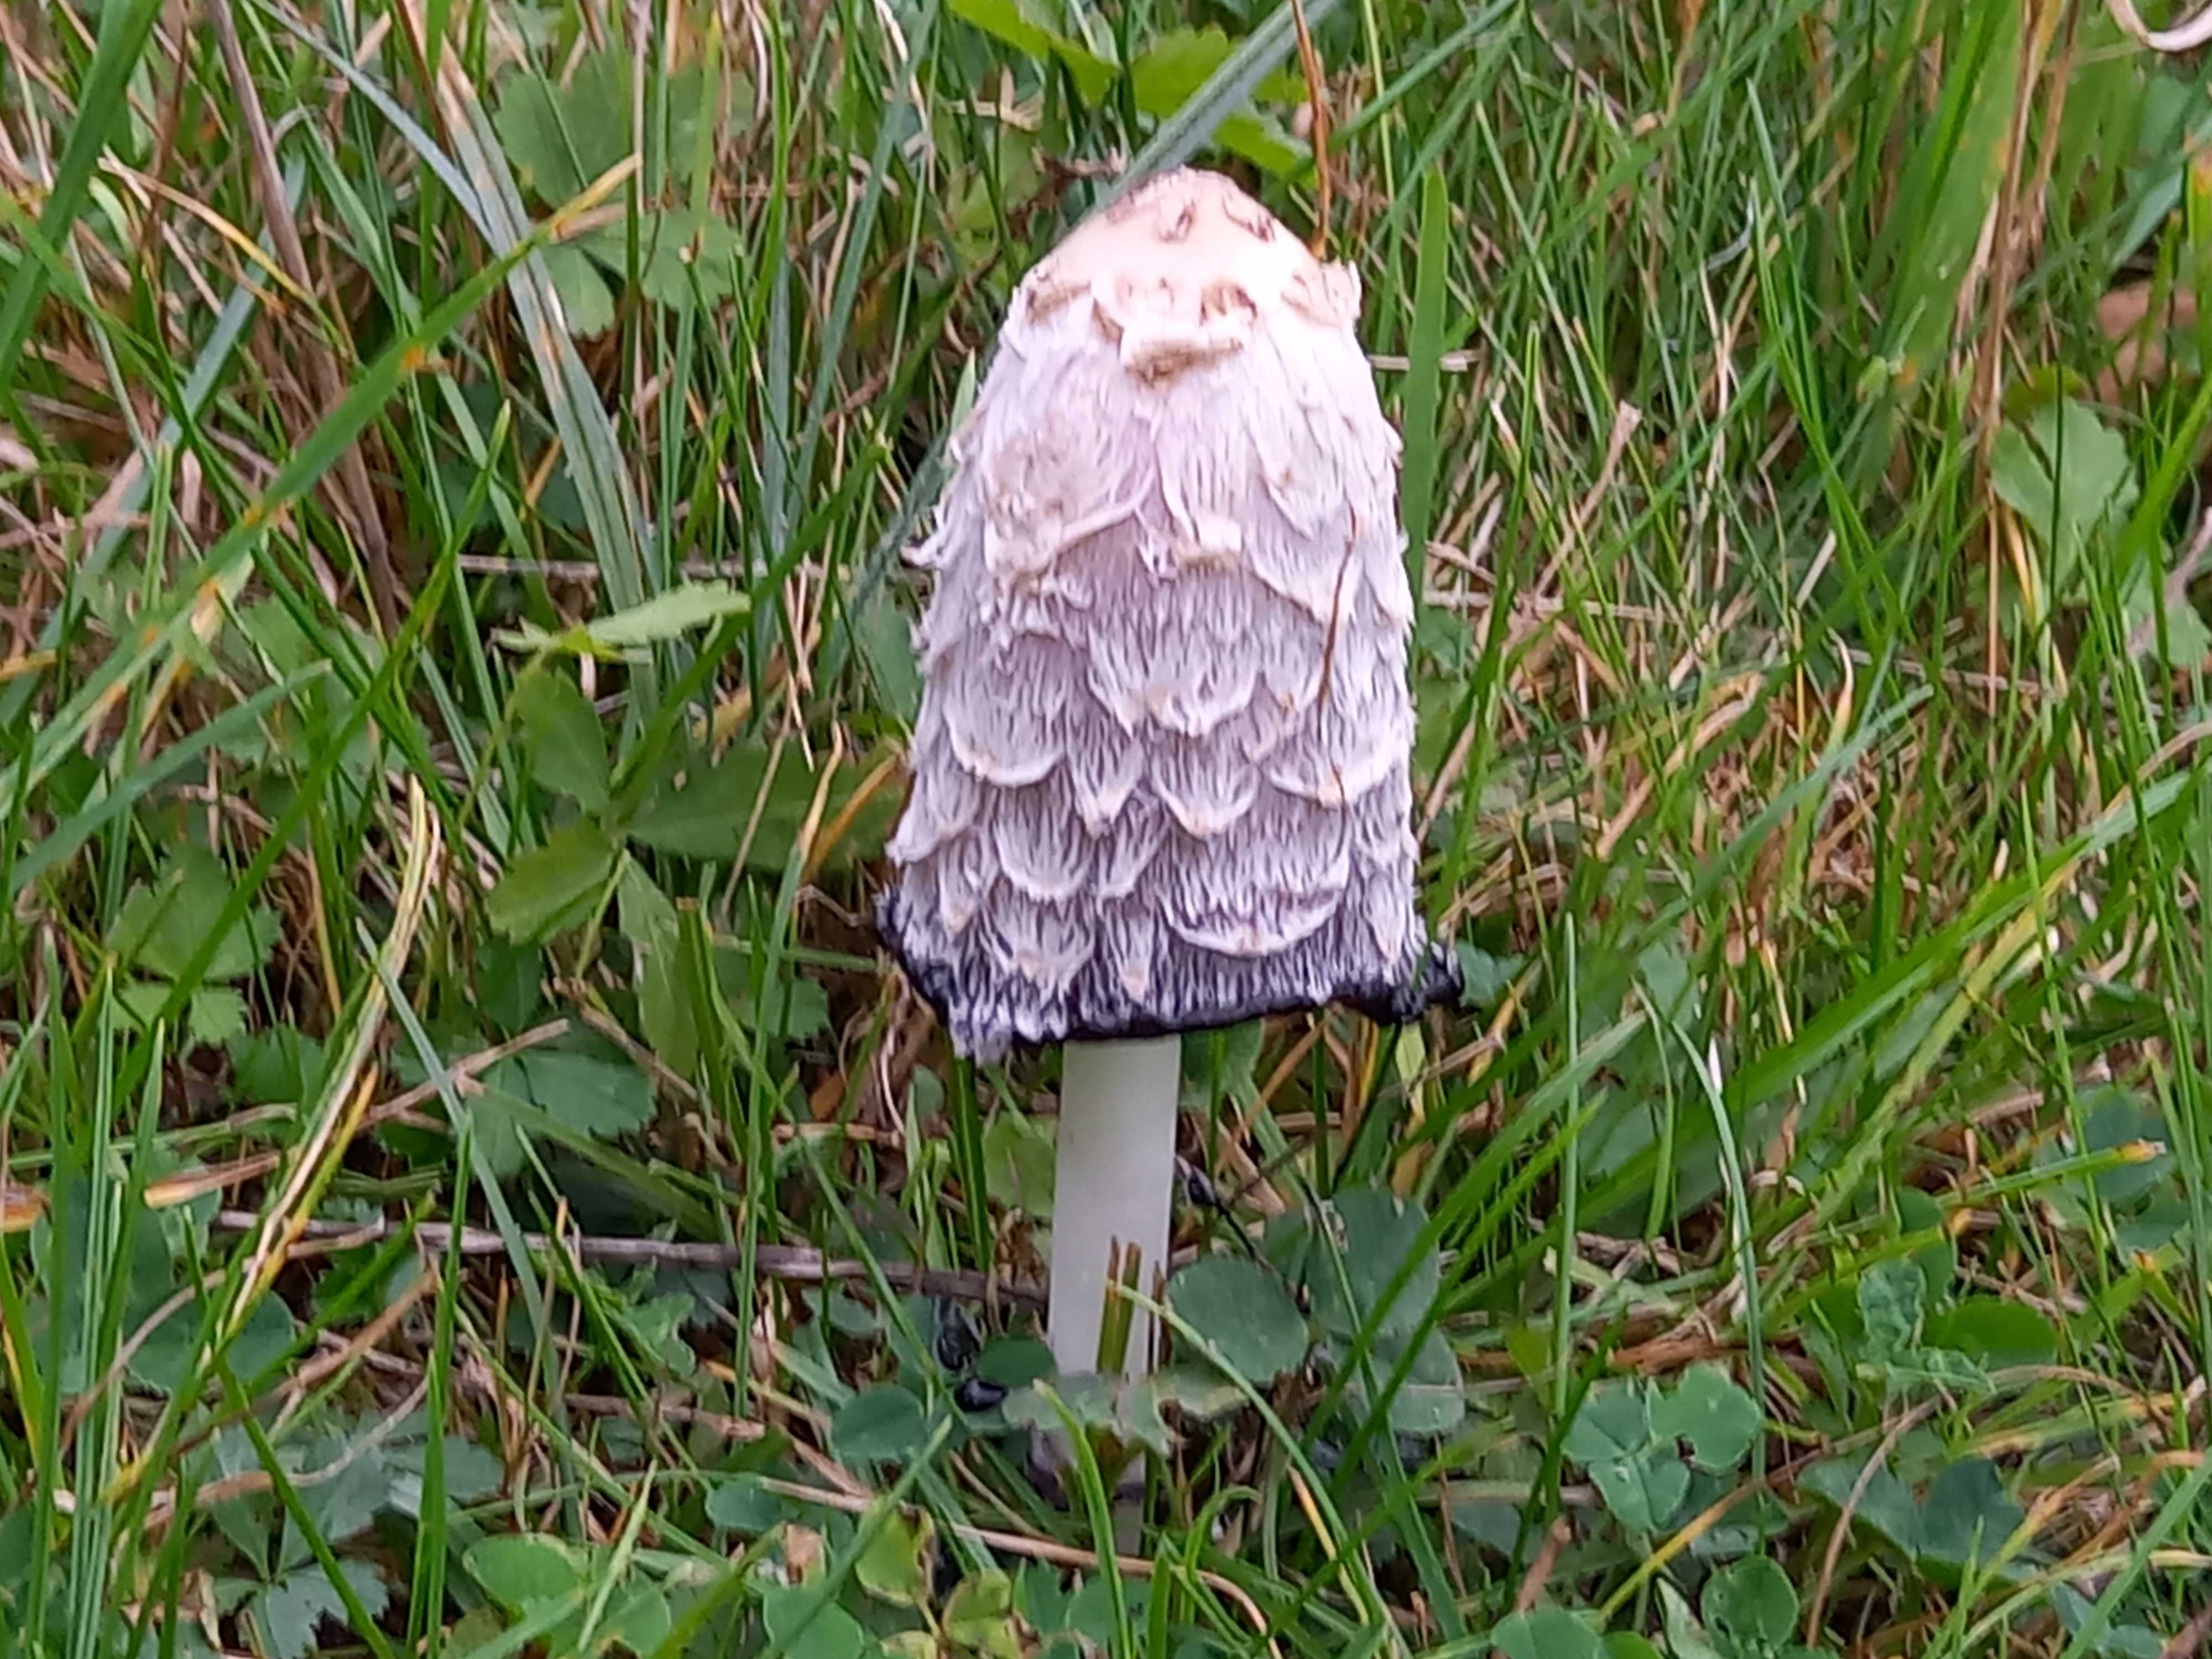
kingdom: Fungi
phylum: Basidiomycota
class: Agaricomycetes
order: Agaricales
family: Agaricaceae
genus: Coprinus
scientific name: Coprinus comatus
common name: stor parykhat
